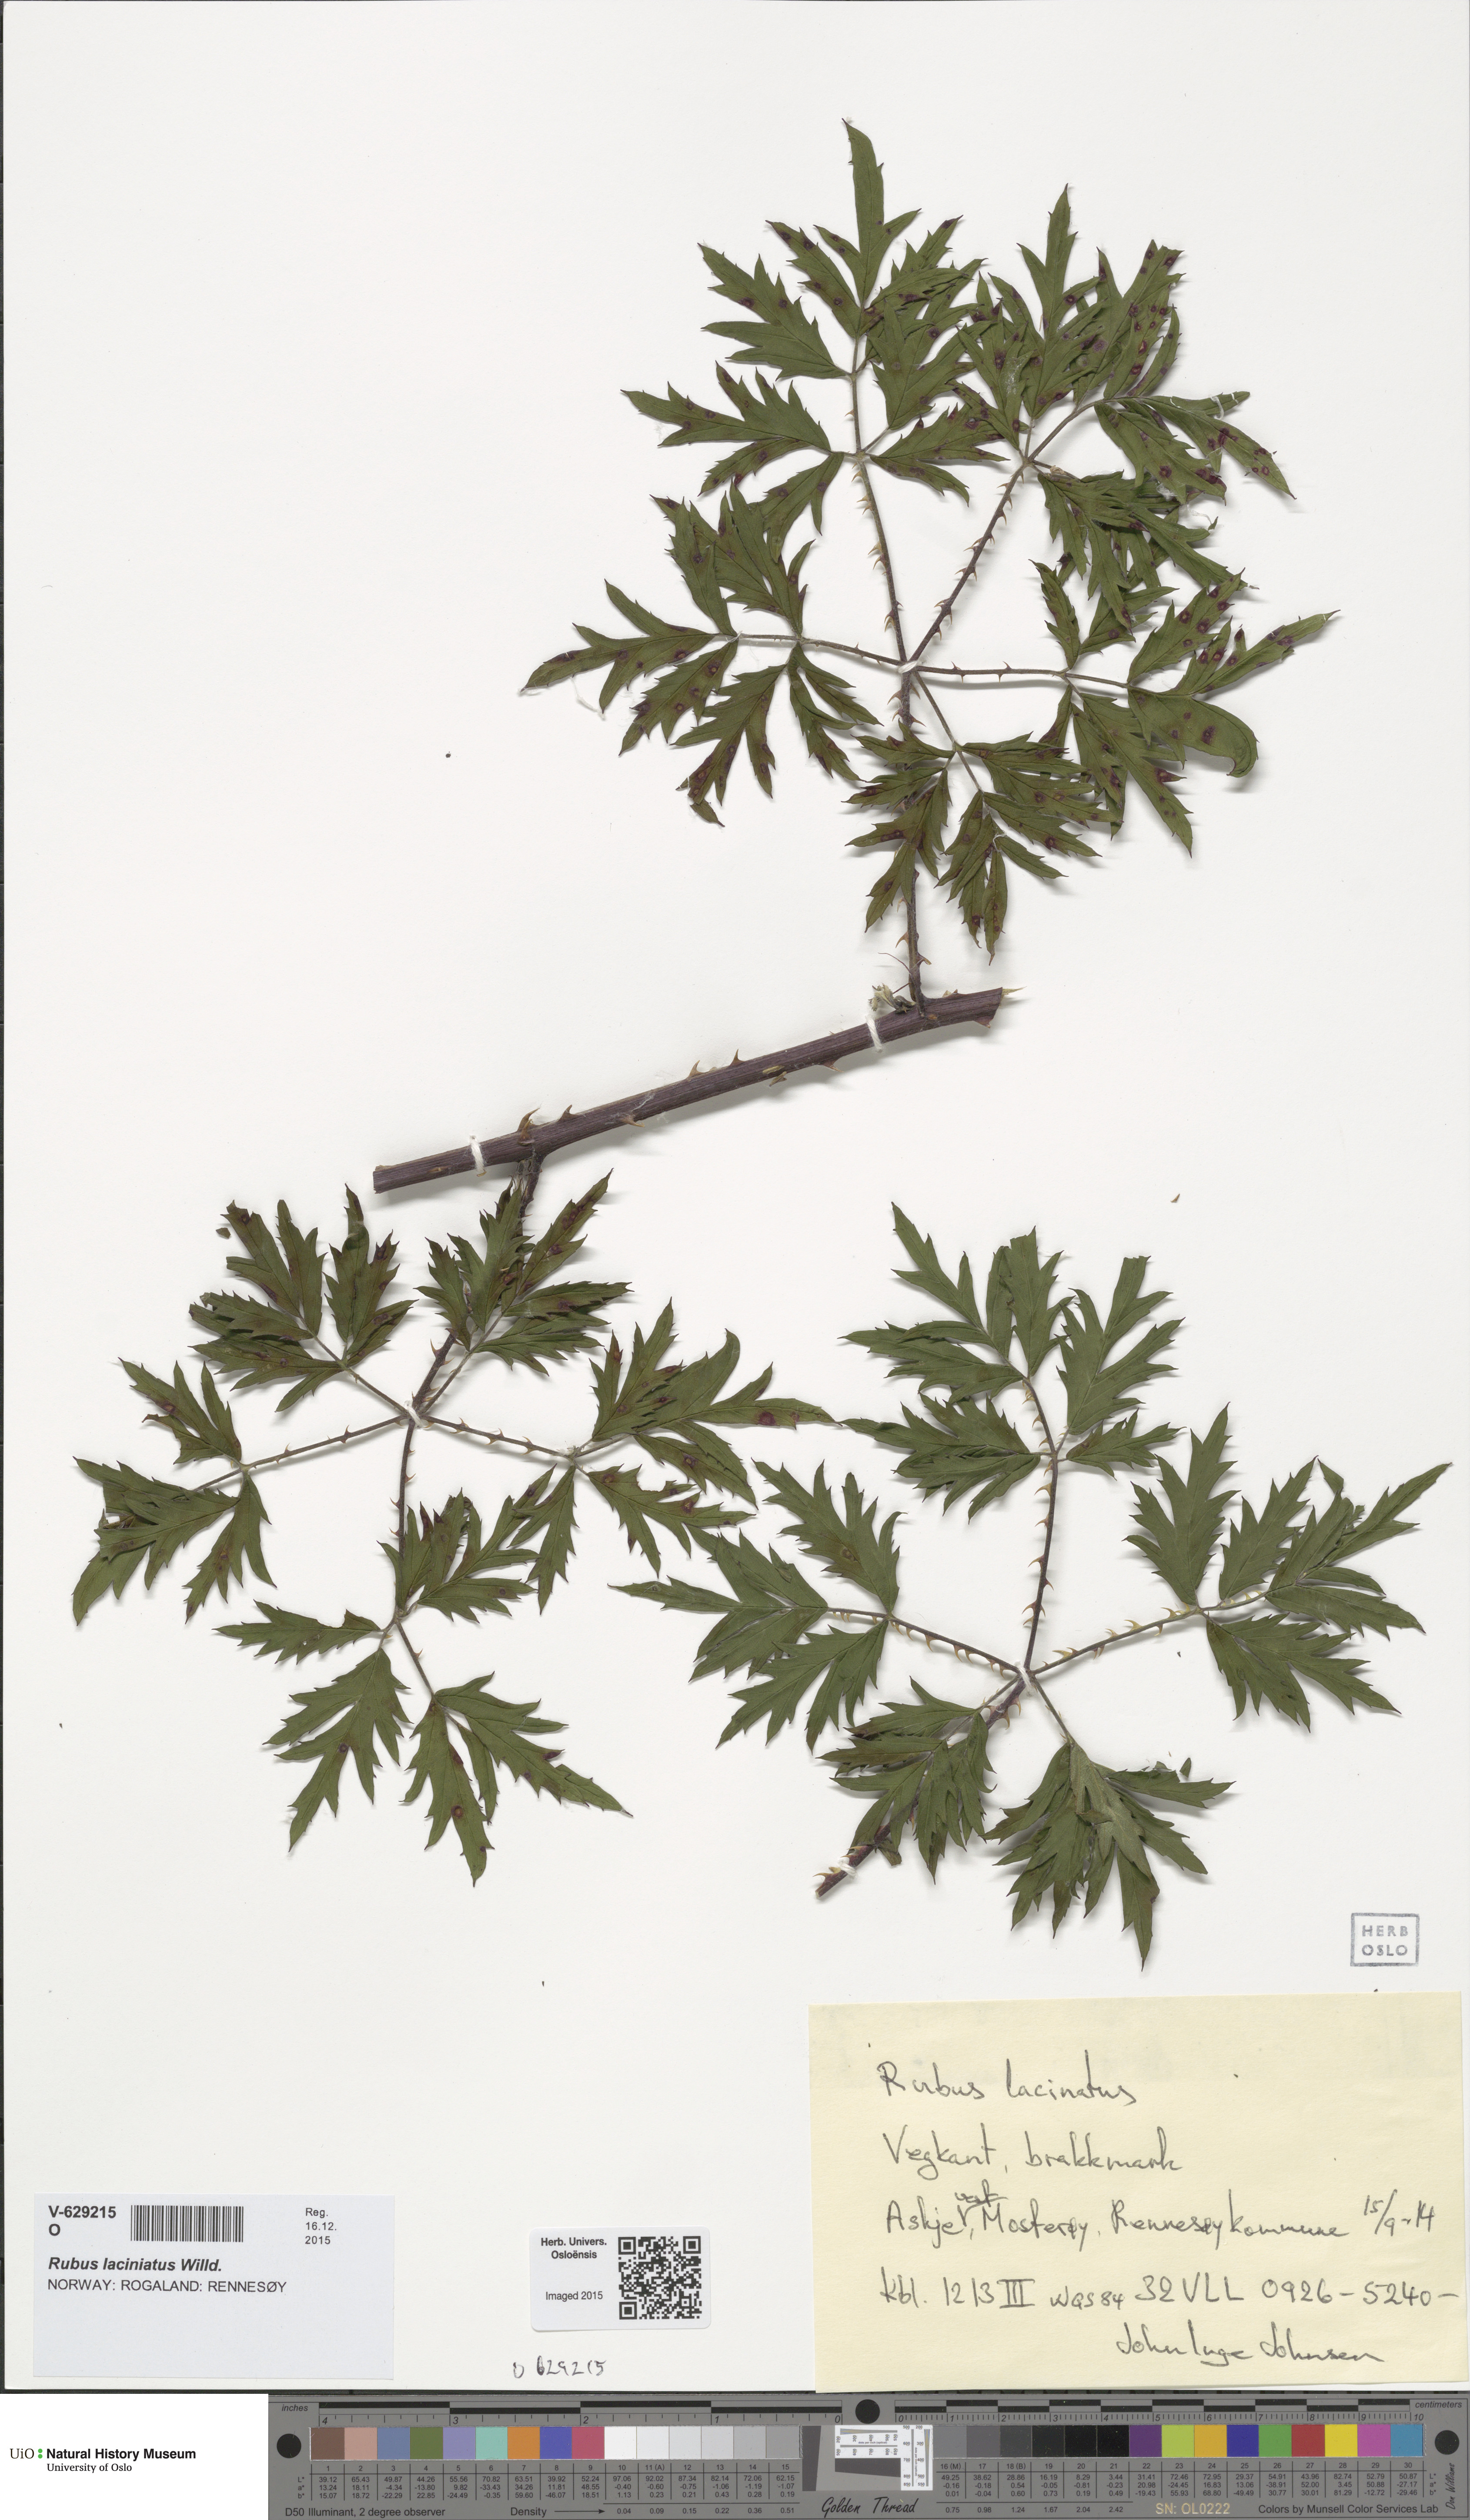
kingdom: Plantae
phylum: Tracheophyta
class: Magnoliopsida
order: Rosales
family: Rosaceae
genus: Rubus
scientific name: Rubus laciniatus
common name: Evergreen blackberry
